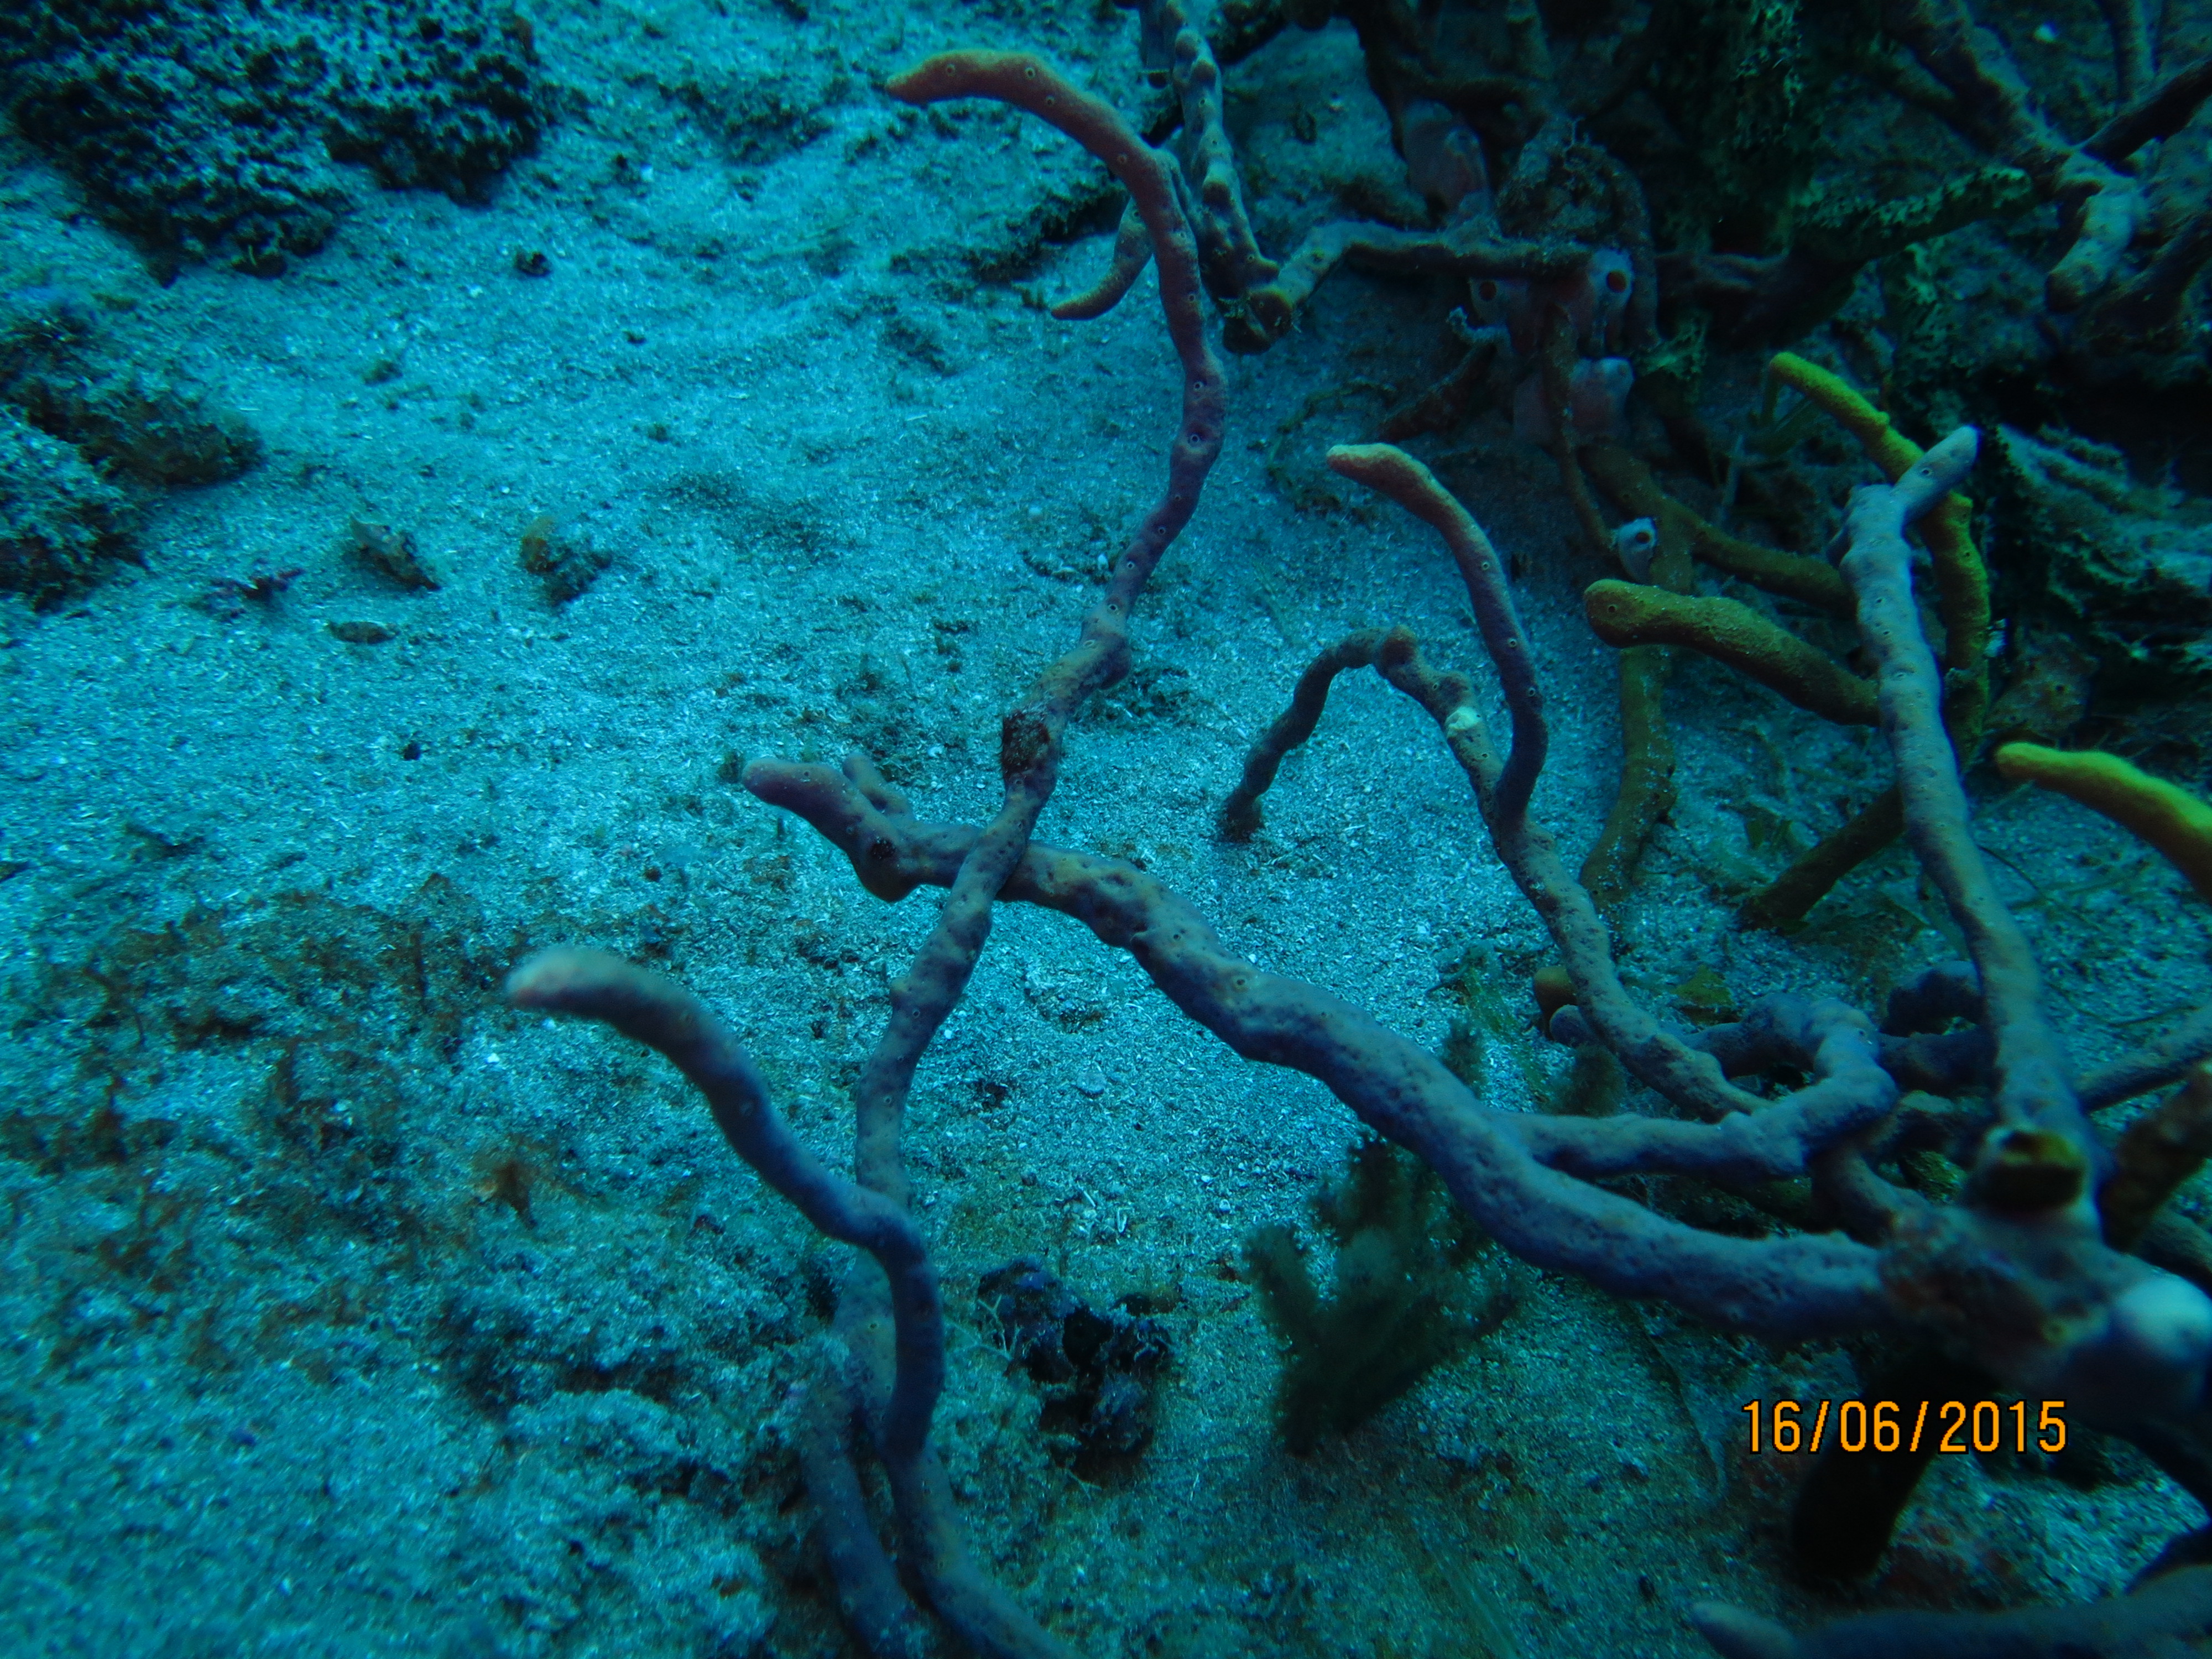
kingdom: Animalia
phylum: Porifera
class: Demospongiae
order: Verongiida
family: Aplysinidae
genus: Aplysina
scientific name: Aplysina cauliformis
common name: Branching candle sponge
